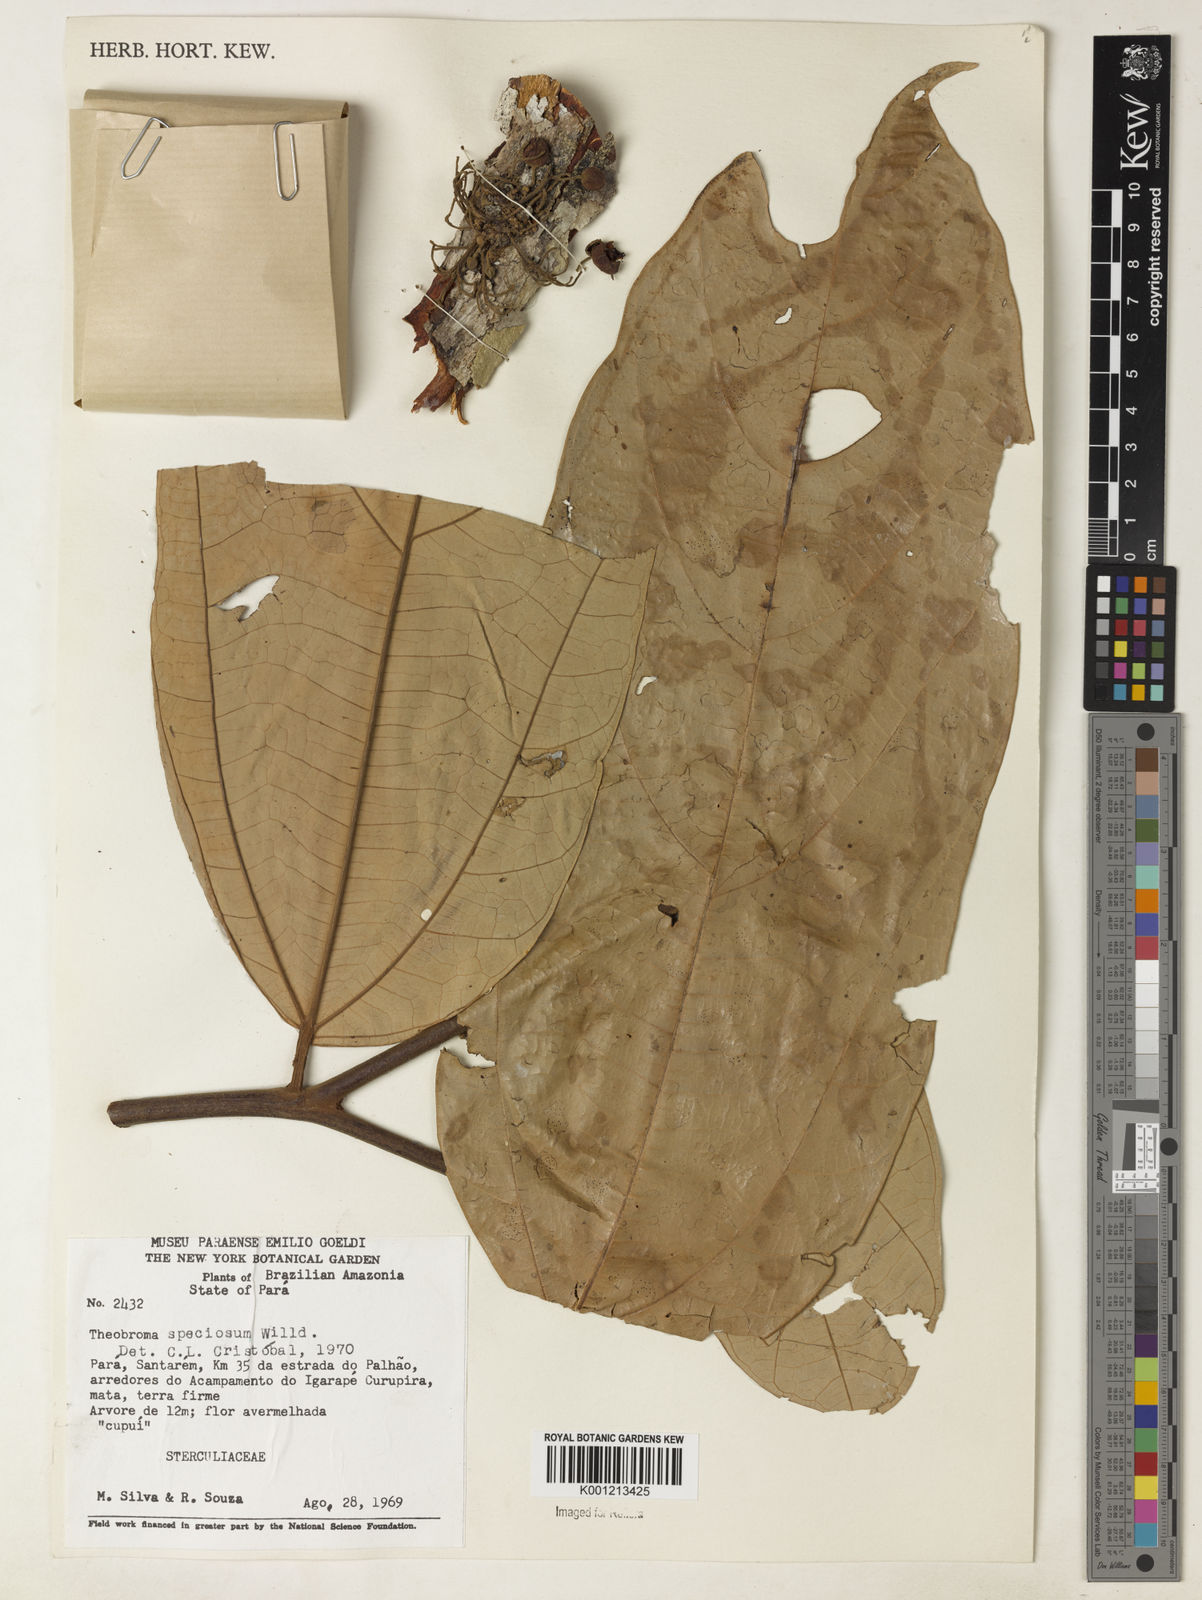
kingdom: Plantae
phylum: Tracheophyta
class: Magnoliopsida
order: Malvales
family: Malvaceae
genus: Theobroma
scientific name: Theobroma speciosum
